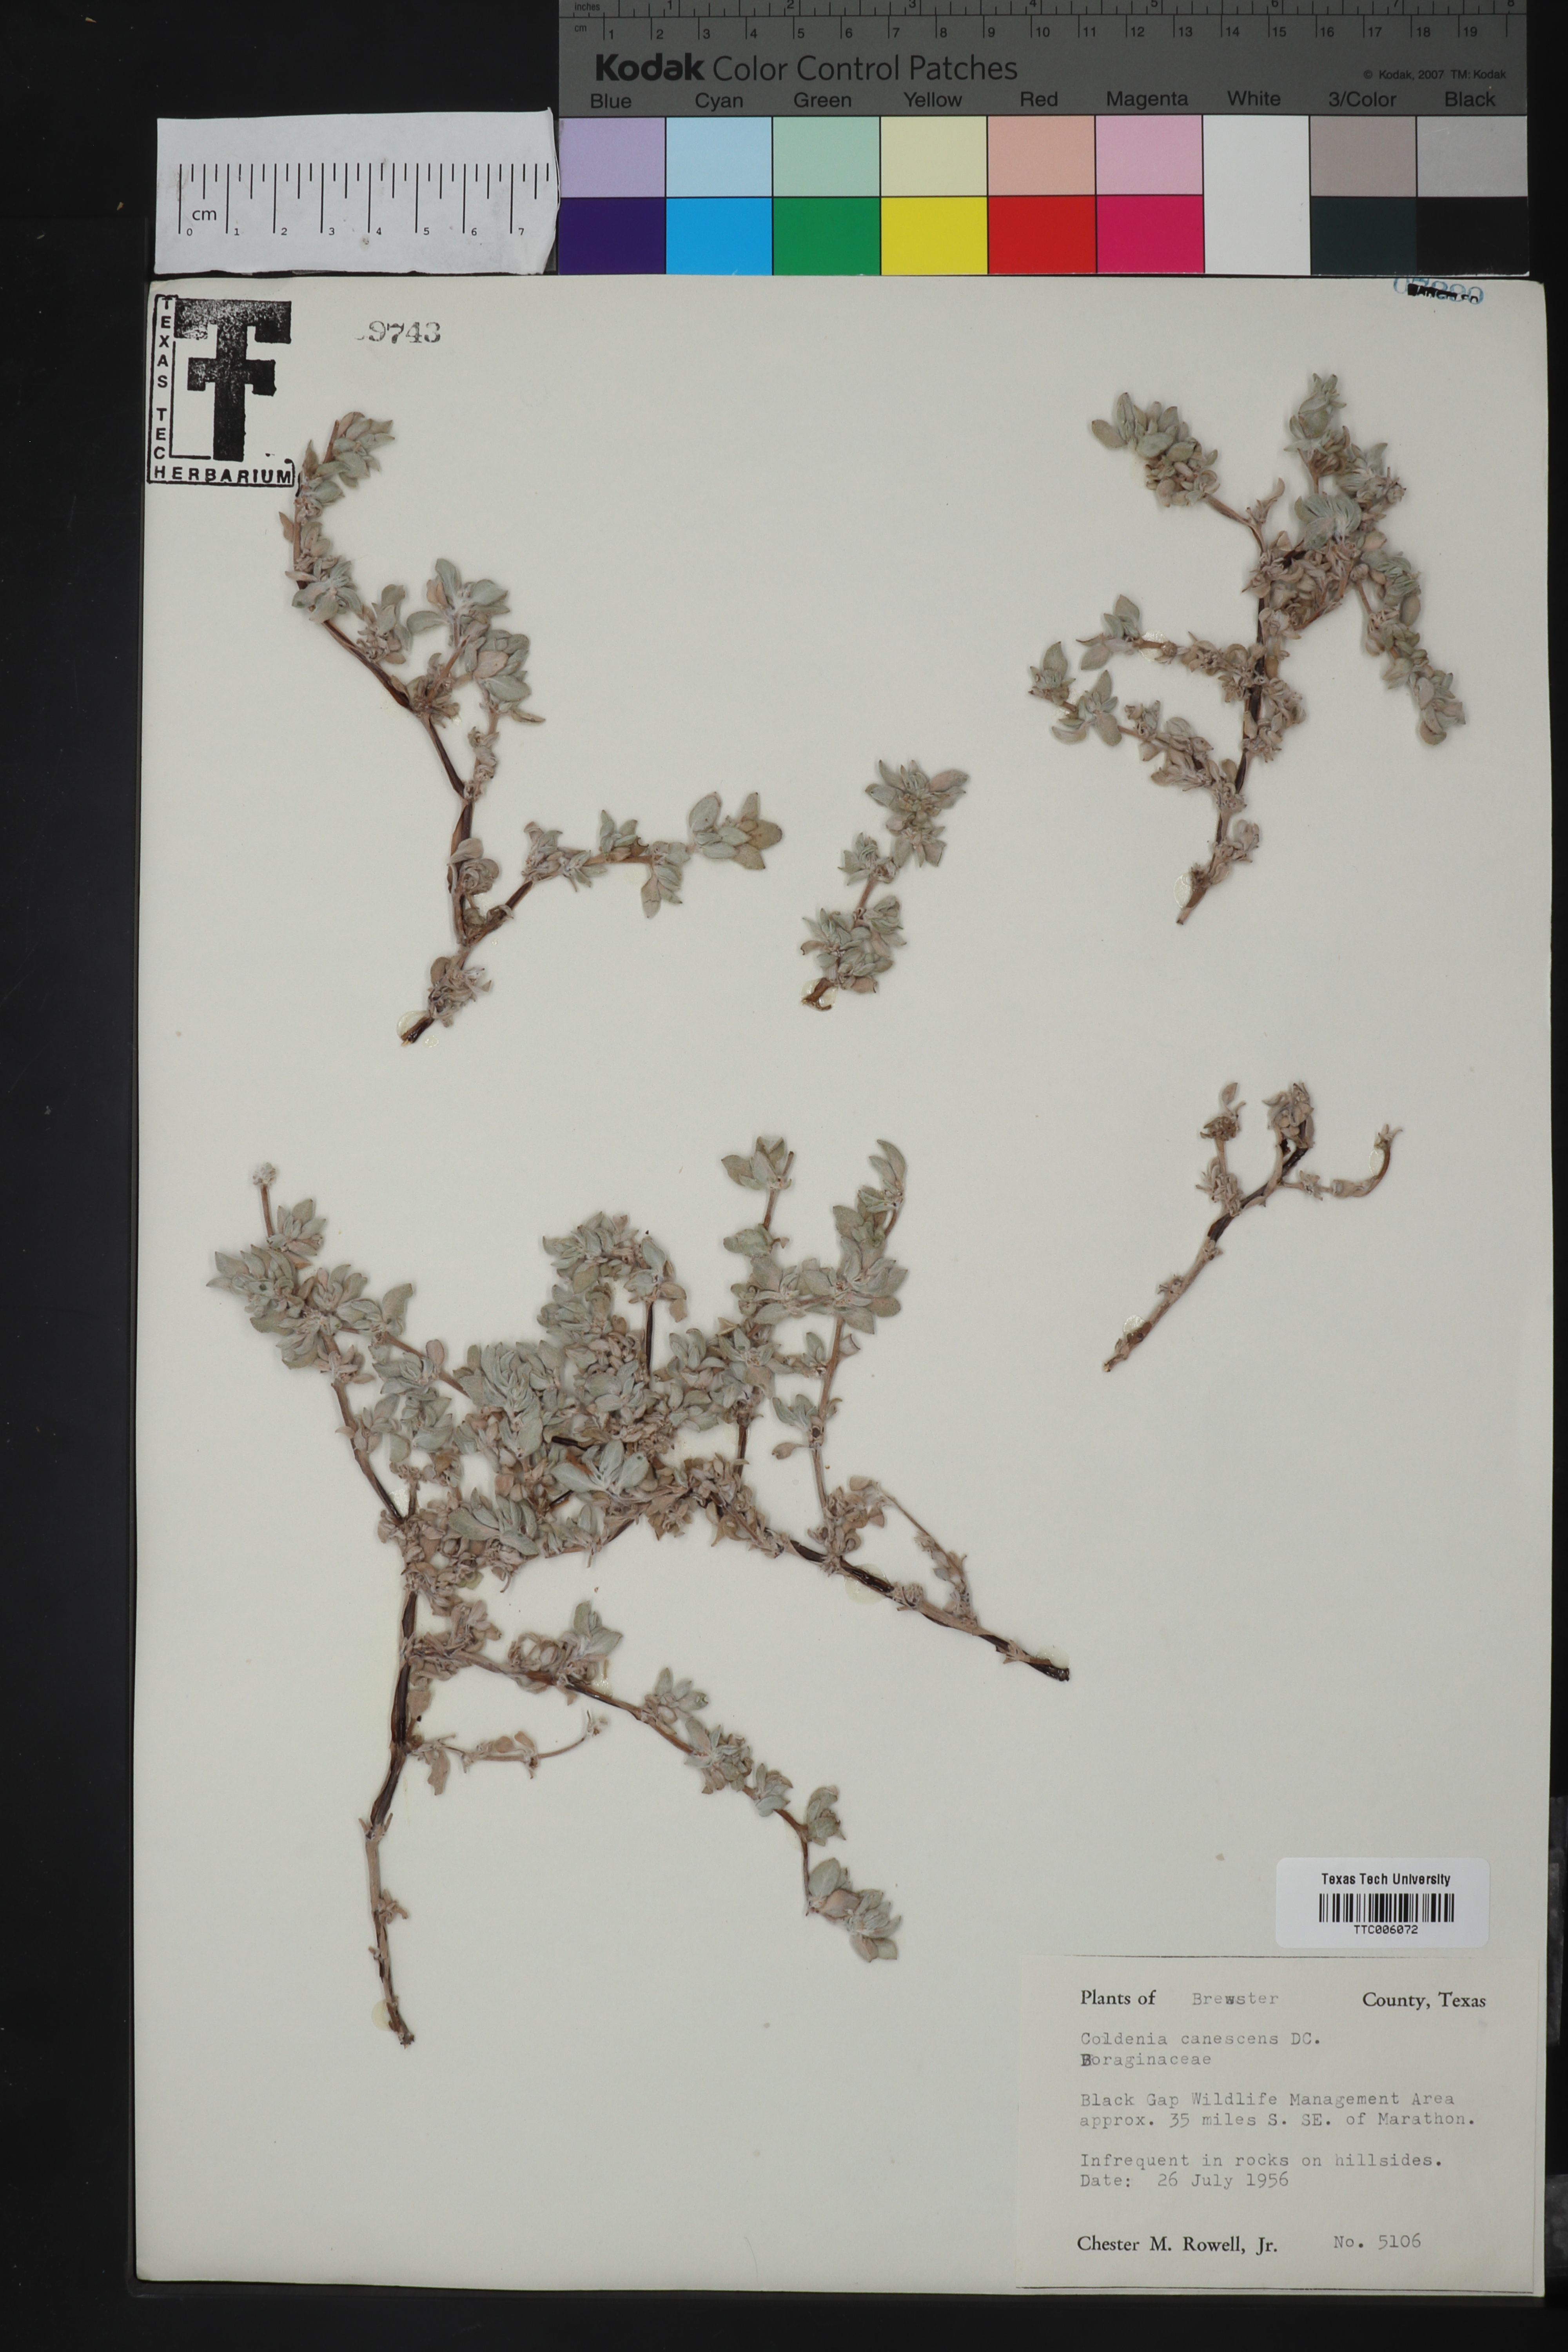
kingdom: Plantae
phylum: Tracheophyta
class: Magnoliopsida
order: Boraginales
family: Ehretiaceae
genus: Tiquilia
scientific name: Tiquilia canescens
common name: Hairy tiquilia
